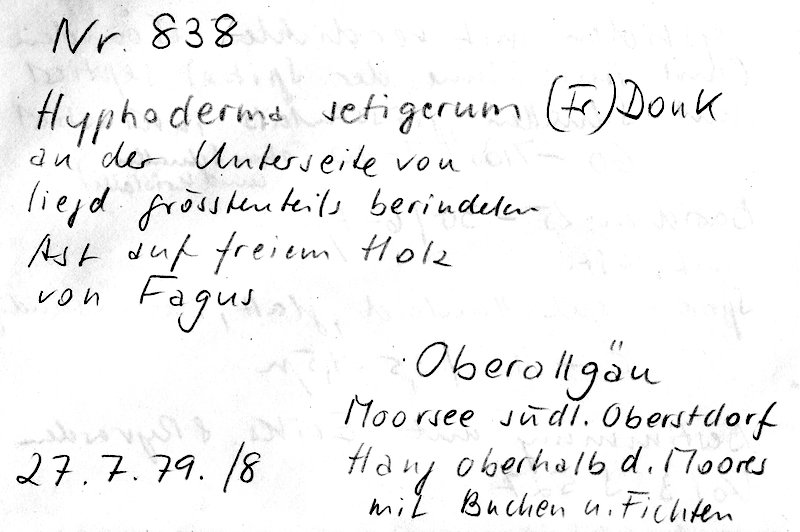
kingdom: Fungi
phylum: Basidiomycota
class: Agaricomycetes
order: Polyporales
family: Hyphodermataceae
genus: Hyphoderma
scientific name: Hyphoderma setigerum
